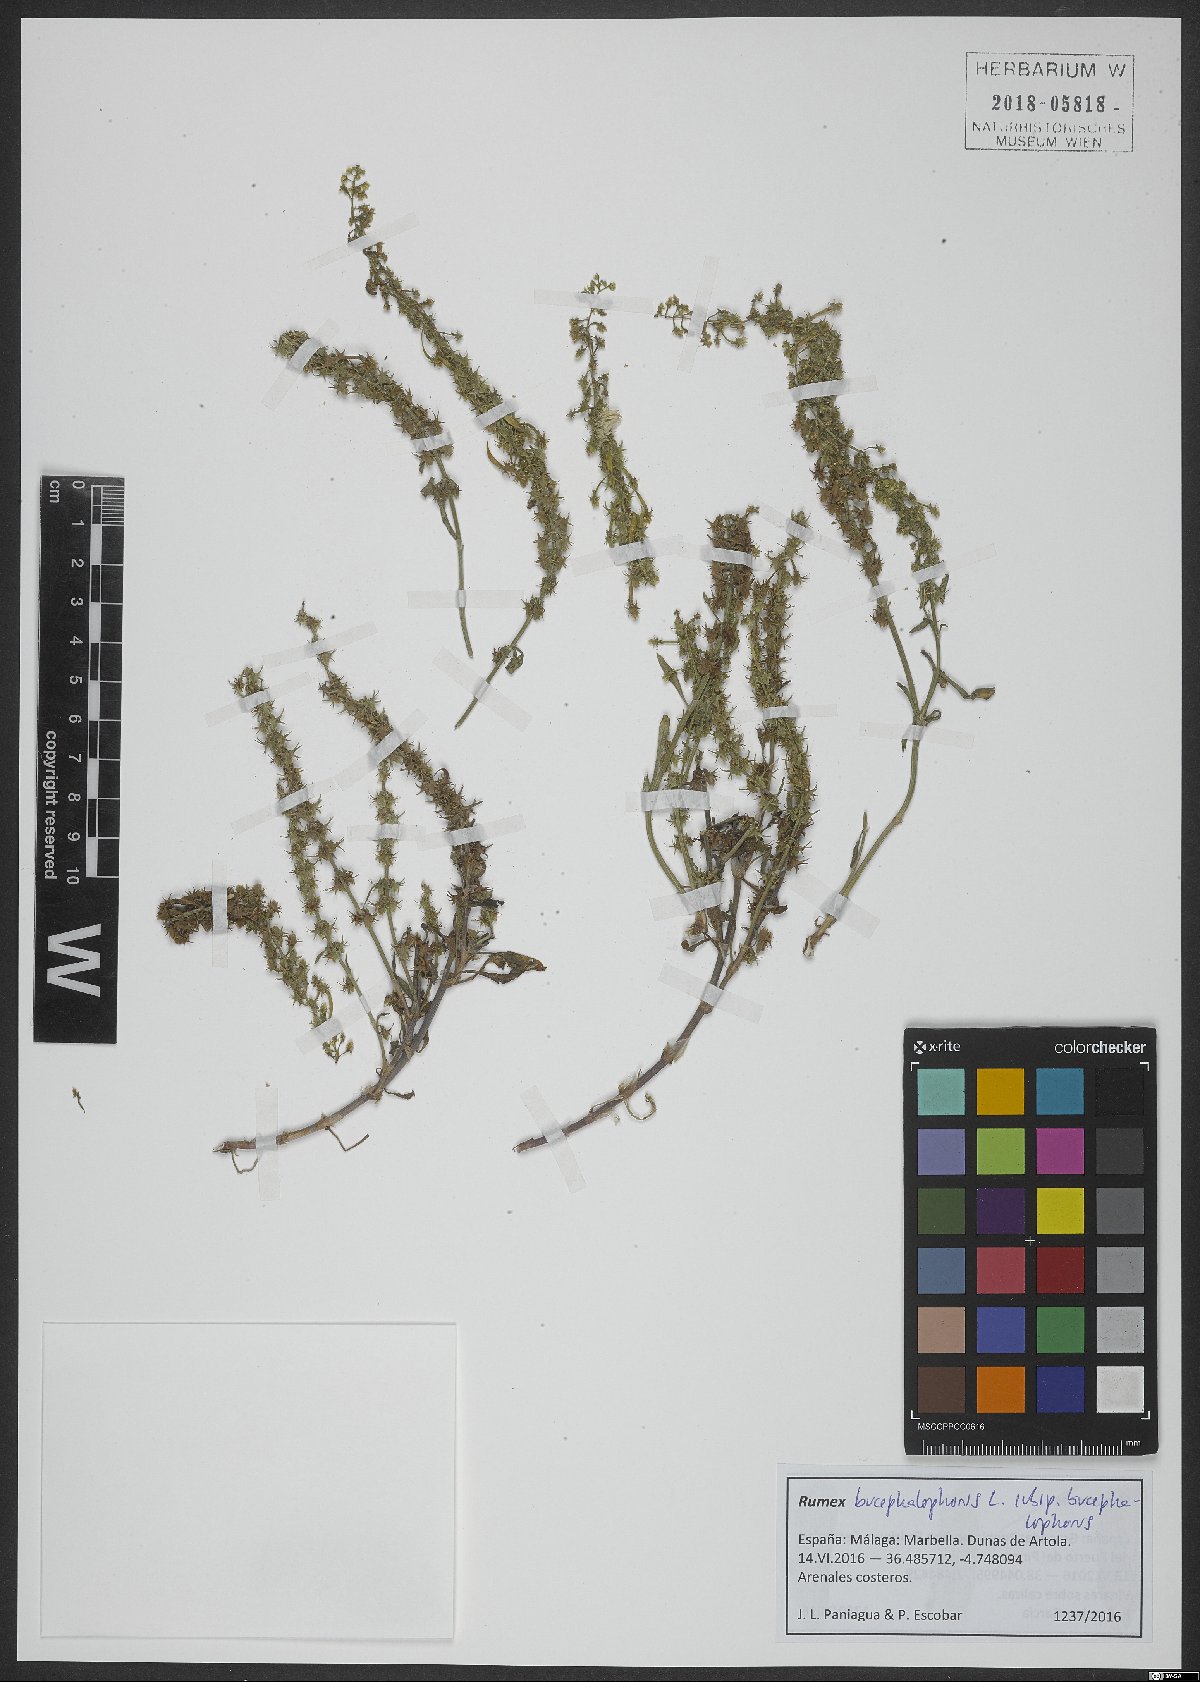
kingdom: Plantae
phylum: Tracheophyta
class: Magnoliopsida
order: Caryophyllales
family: Polygonaceae
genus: Rumex
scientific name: Rumex bucephalophorus
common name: Red dock
